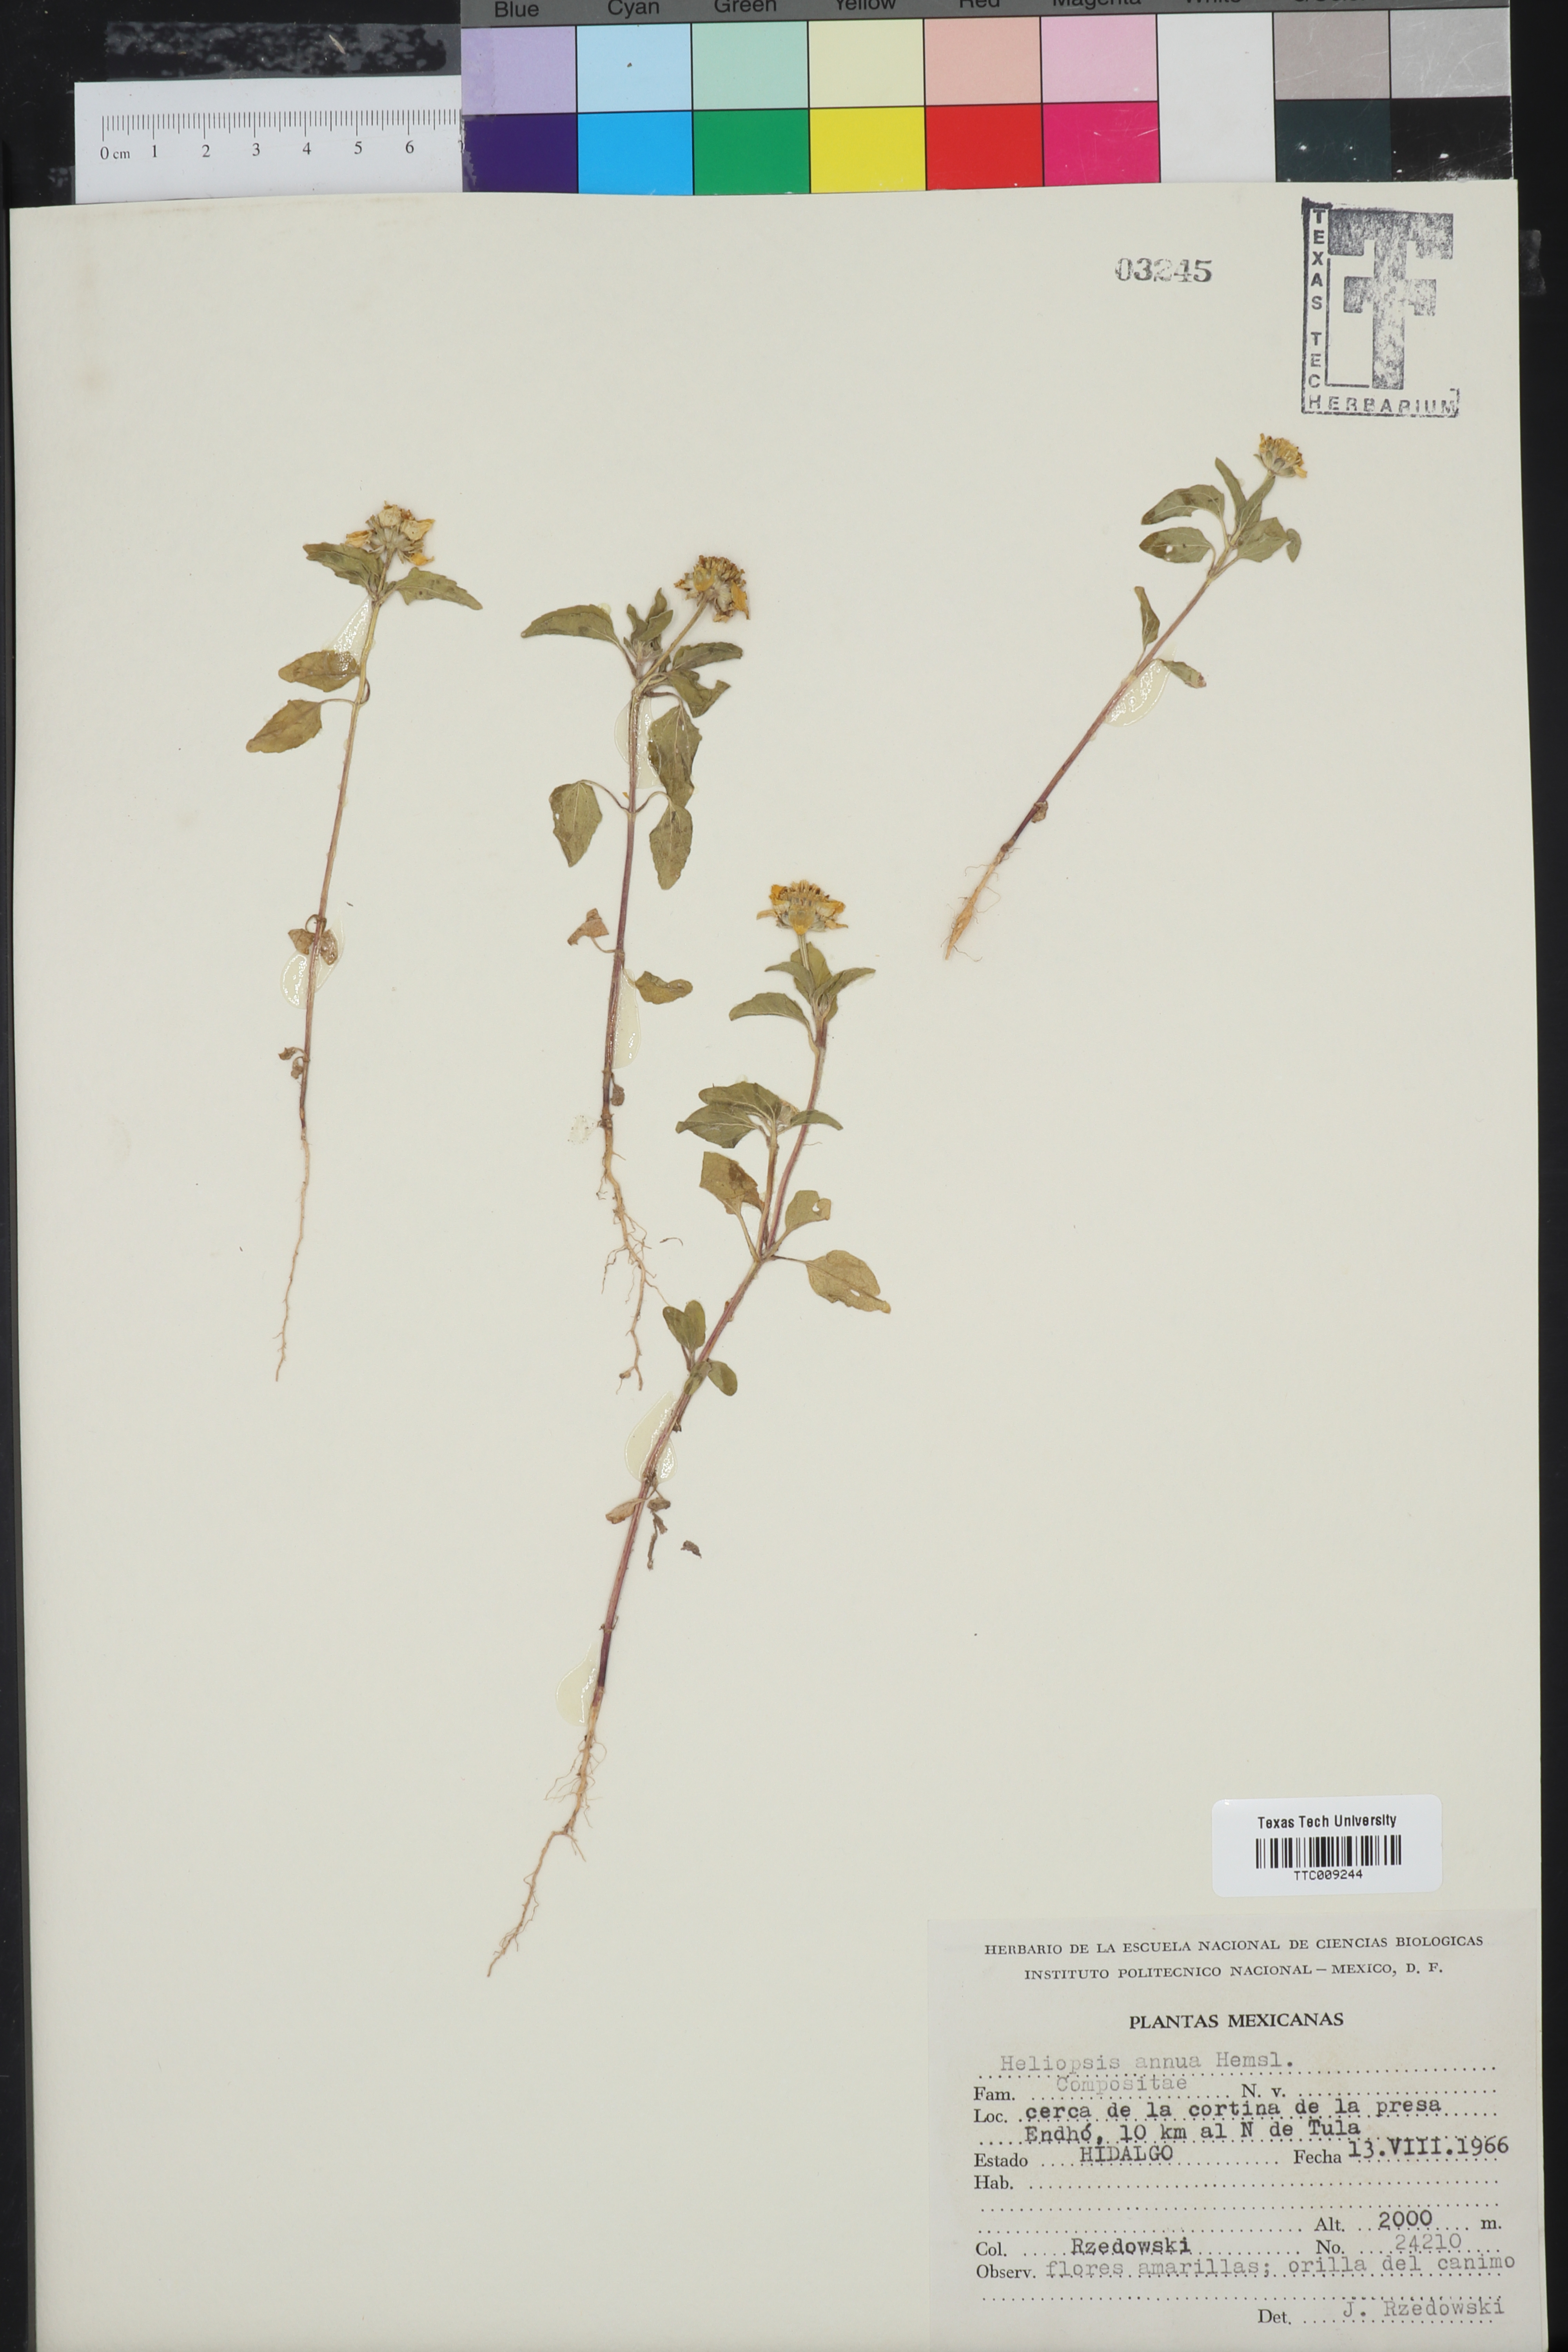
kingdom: Plantae
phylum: Tracheophyta
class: Magnoliopsida
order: Asterales
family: Asteraceae
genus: Heliopsis
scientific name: Heliopsis annua
